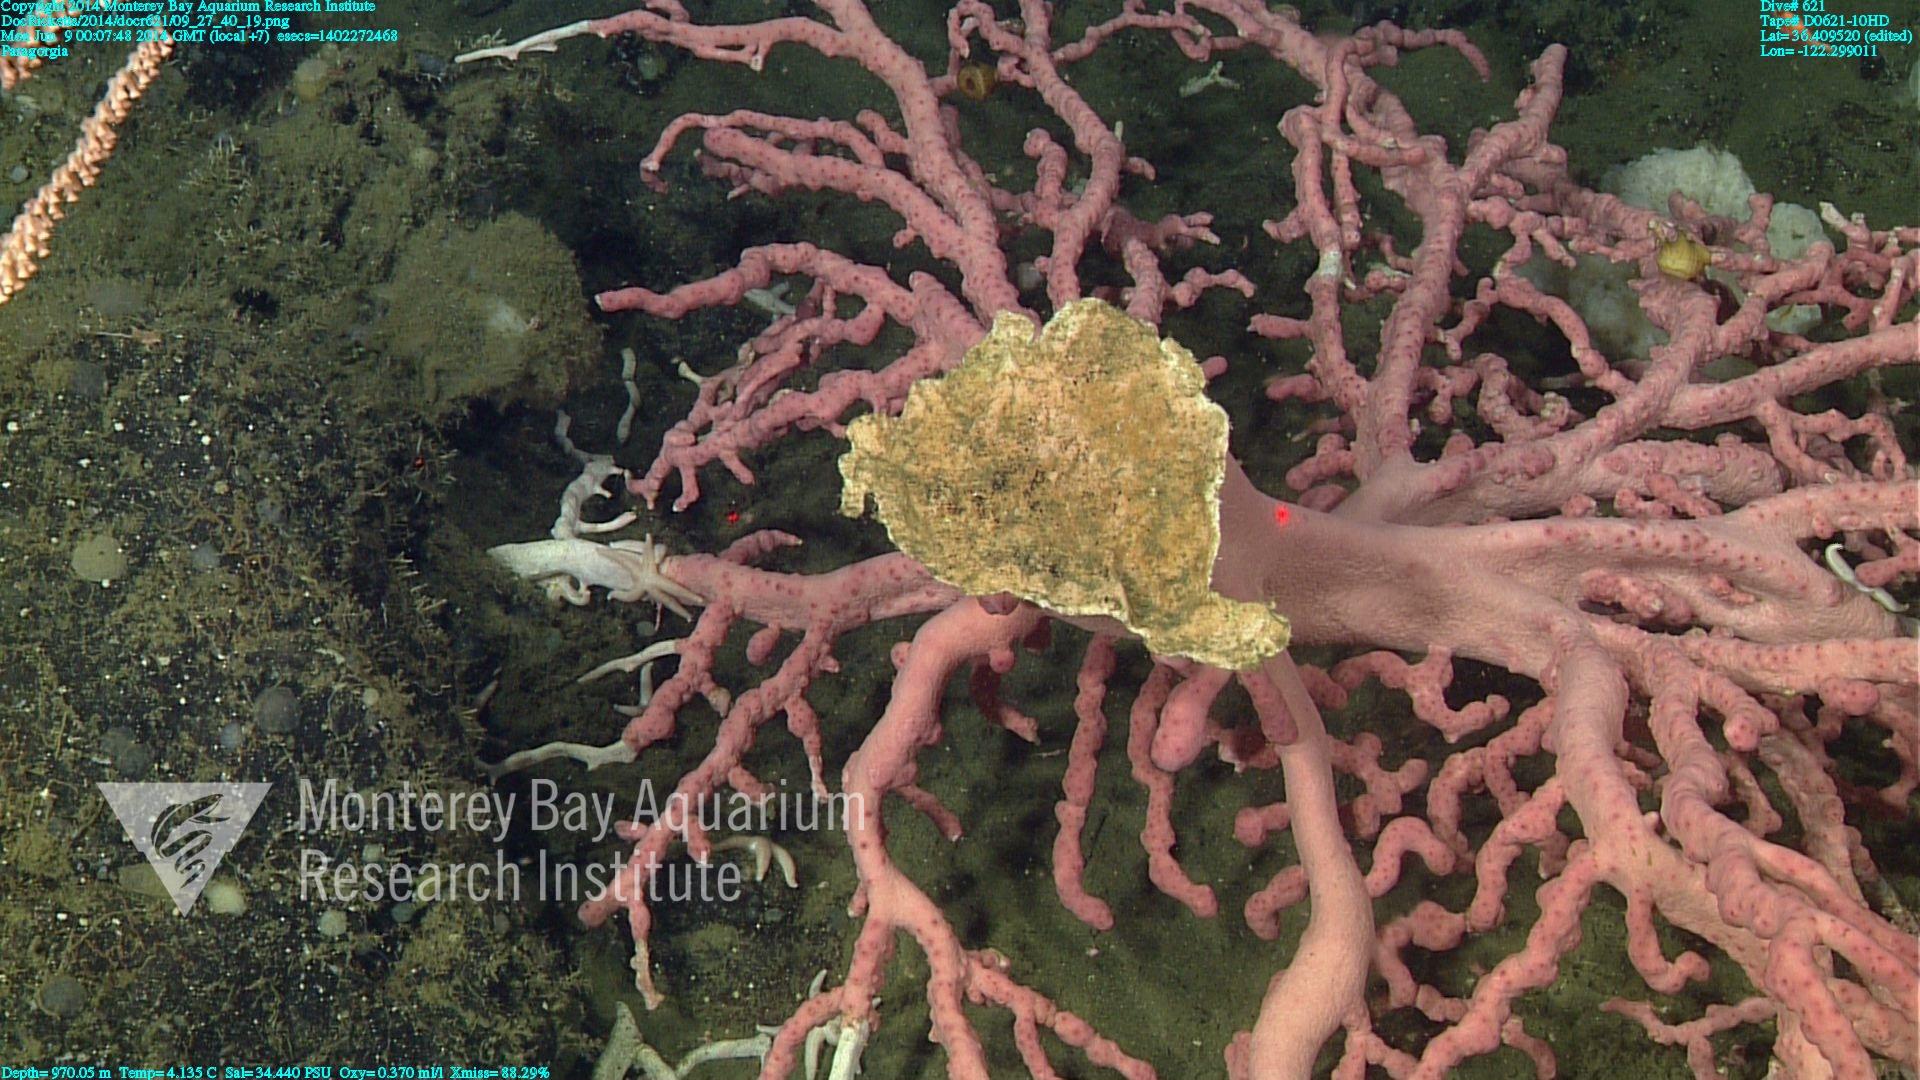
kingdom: Animalia
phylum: Cnidaria
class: Anthozoa
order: Scleralcyonacea
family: Coralliidae
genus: Paragorgia
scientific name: Paragorgia arborea
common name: Bubble gum coral
